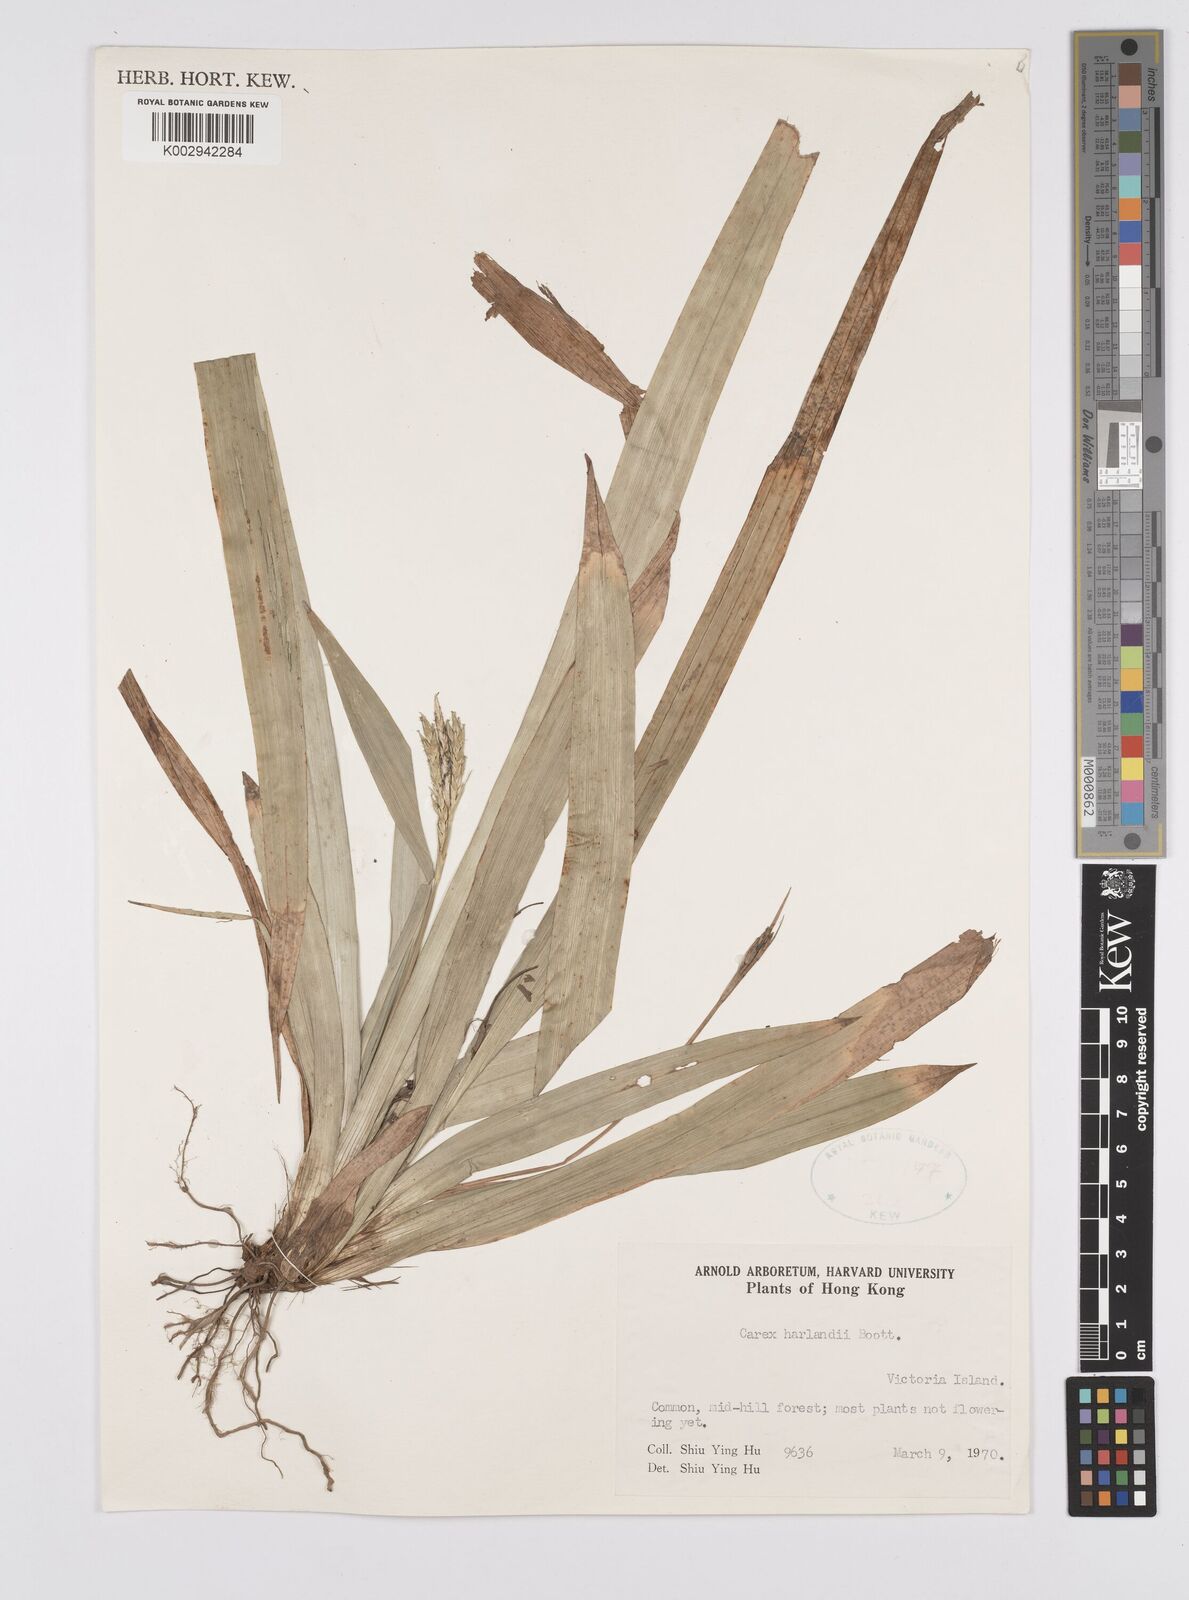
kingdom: Plantae
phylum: Tracheophyta
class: Liliopsida
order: Poales
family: Cyperaceae
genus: Carex
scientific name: Carex
